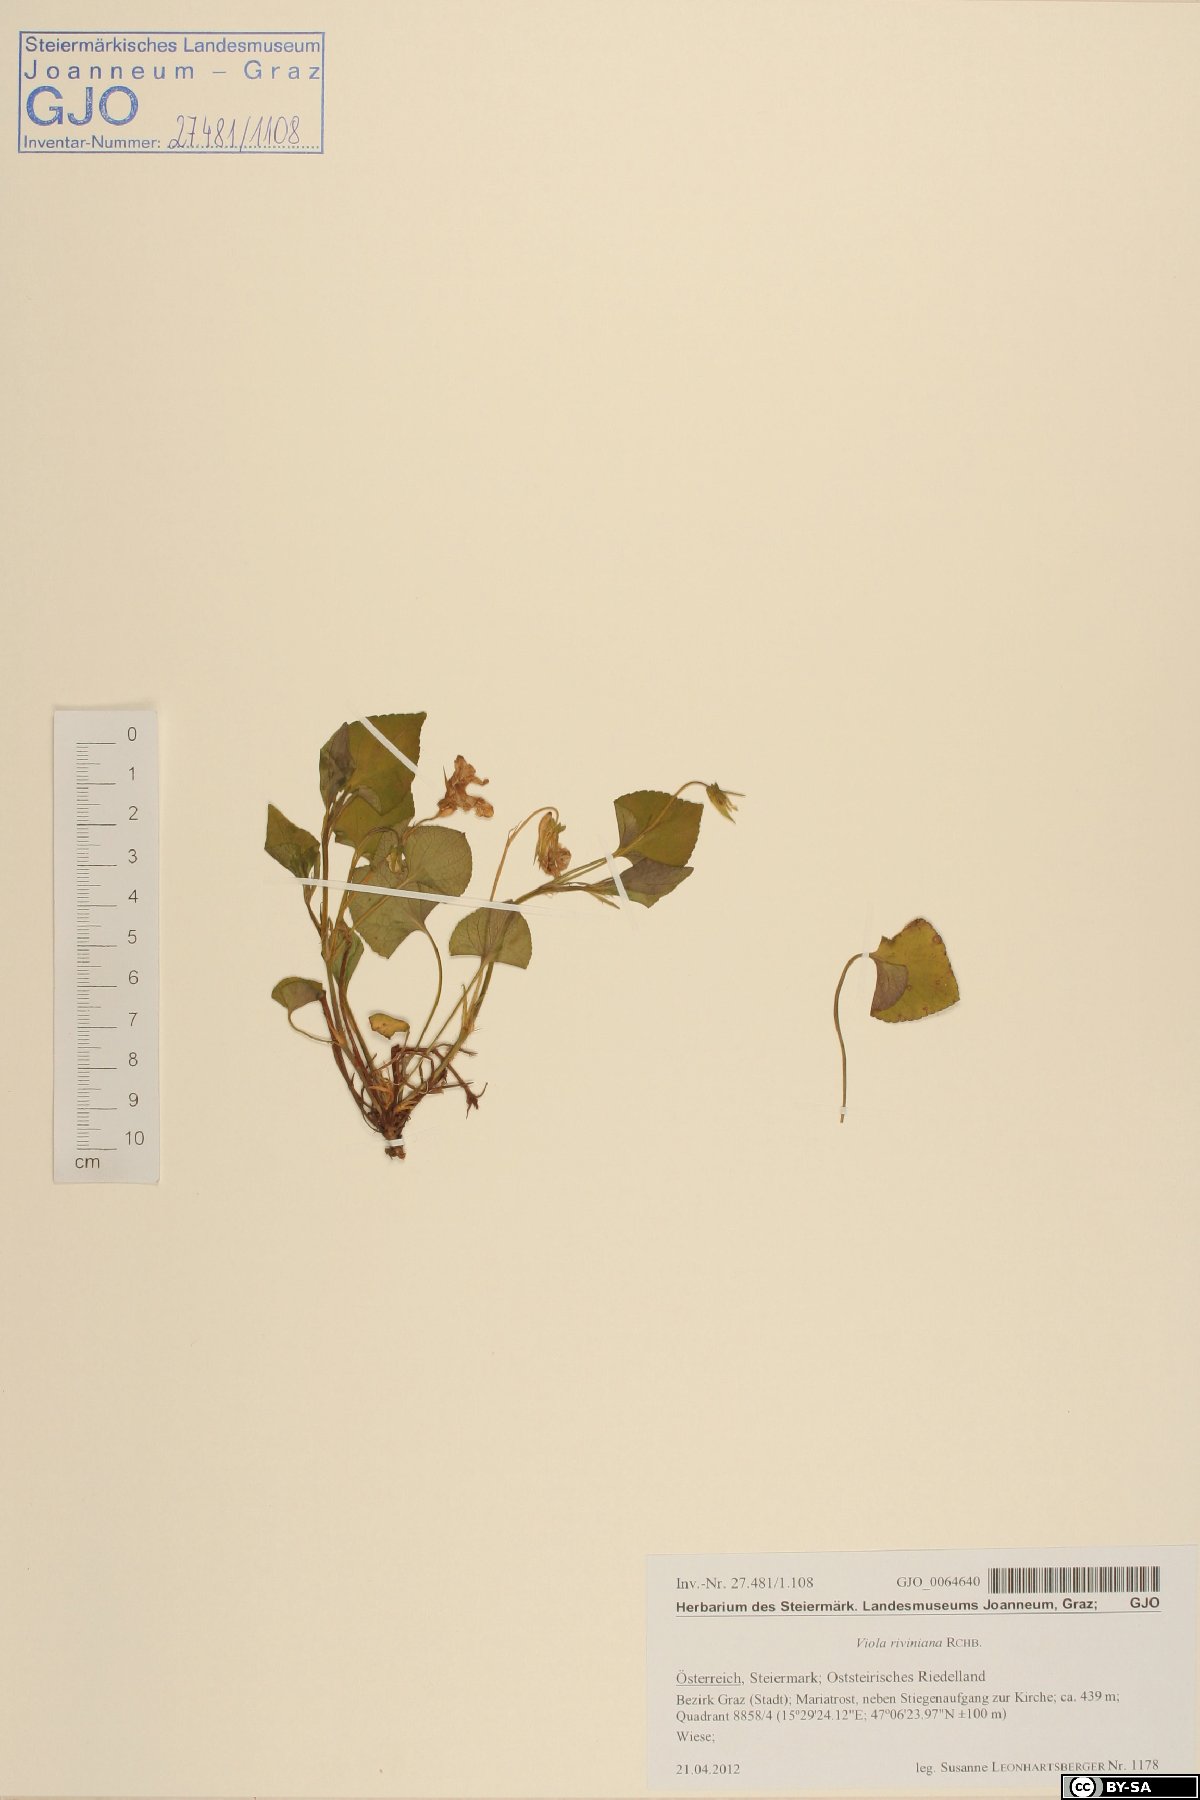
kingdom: Plantae
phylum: Tracheophyta
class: Magnoliopsida
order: Malpighiales
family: Violaceae
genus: Viola
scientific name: Viola riviniana
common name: Common dog-violet
